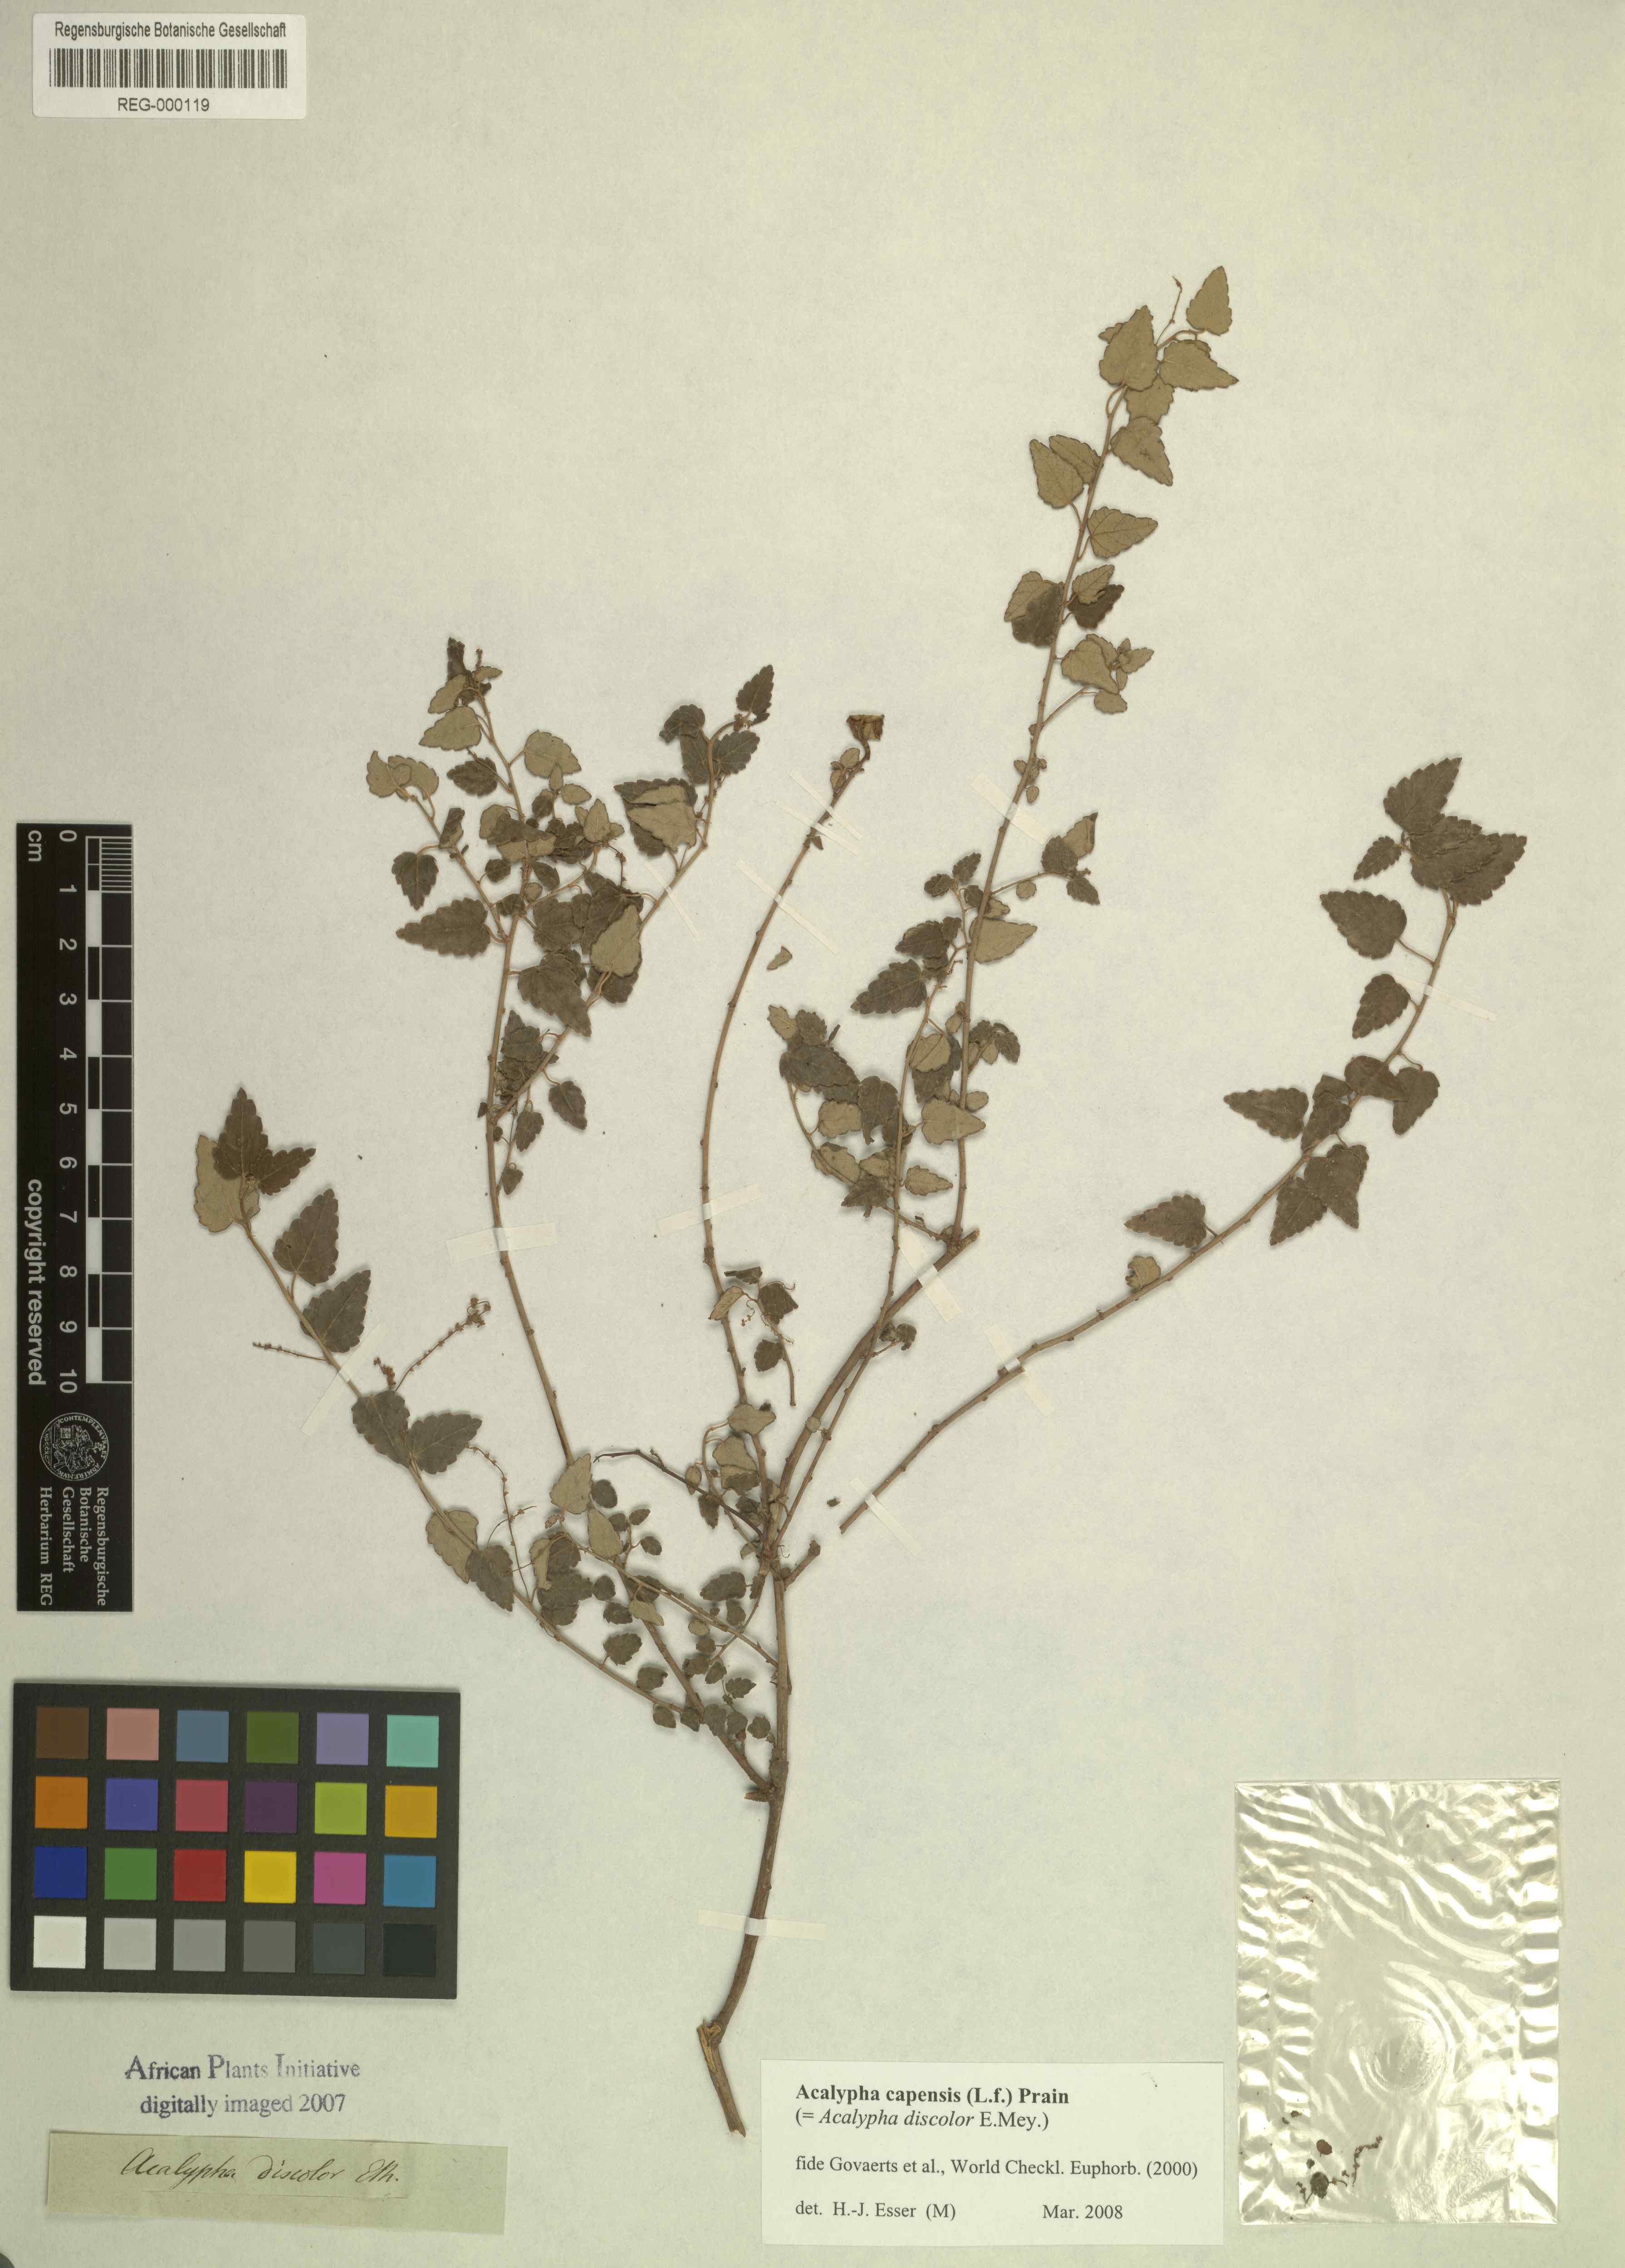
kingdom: Plantae
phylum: Tracheophyta
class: Magnoliopsida
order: Rosales
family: Urticaceae
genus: Didymodoxa
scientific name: Didymodoxa capensis
